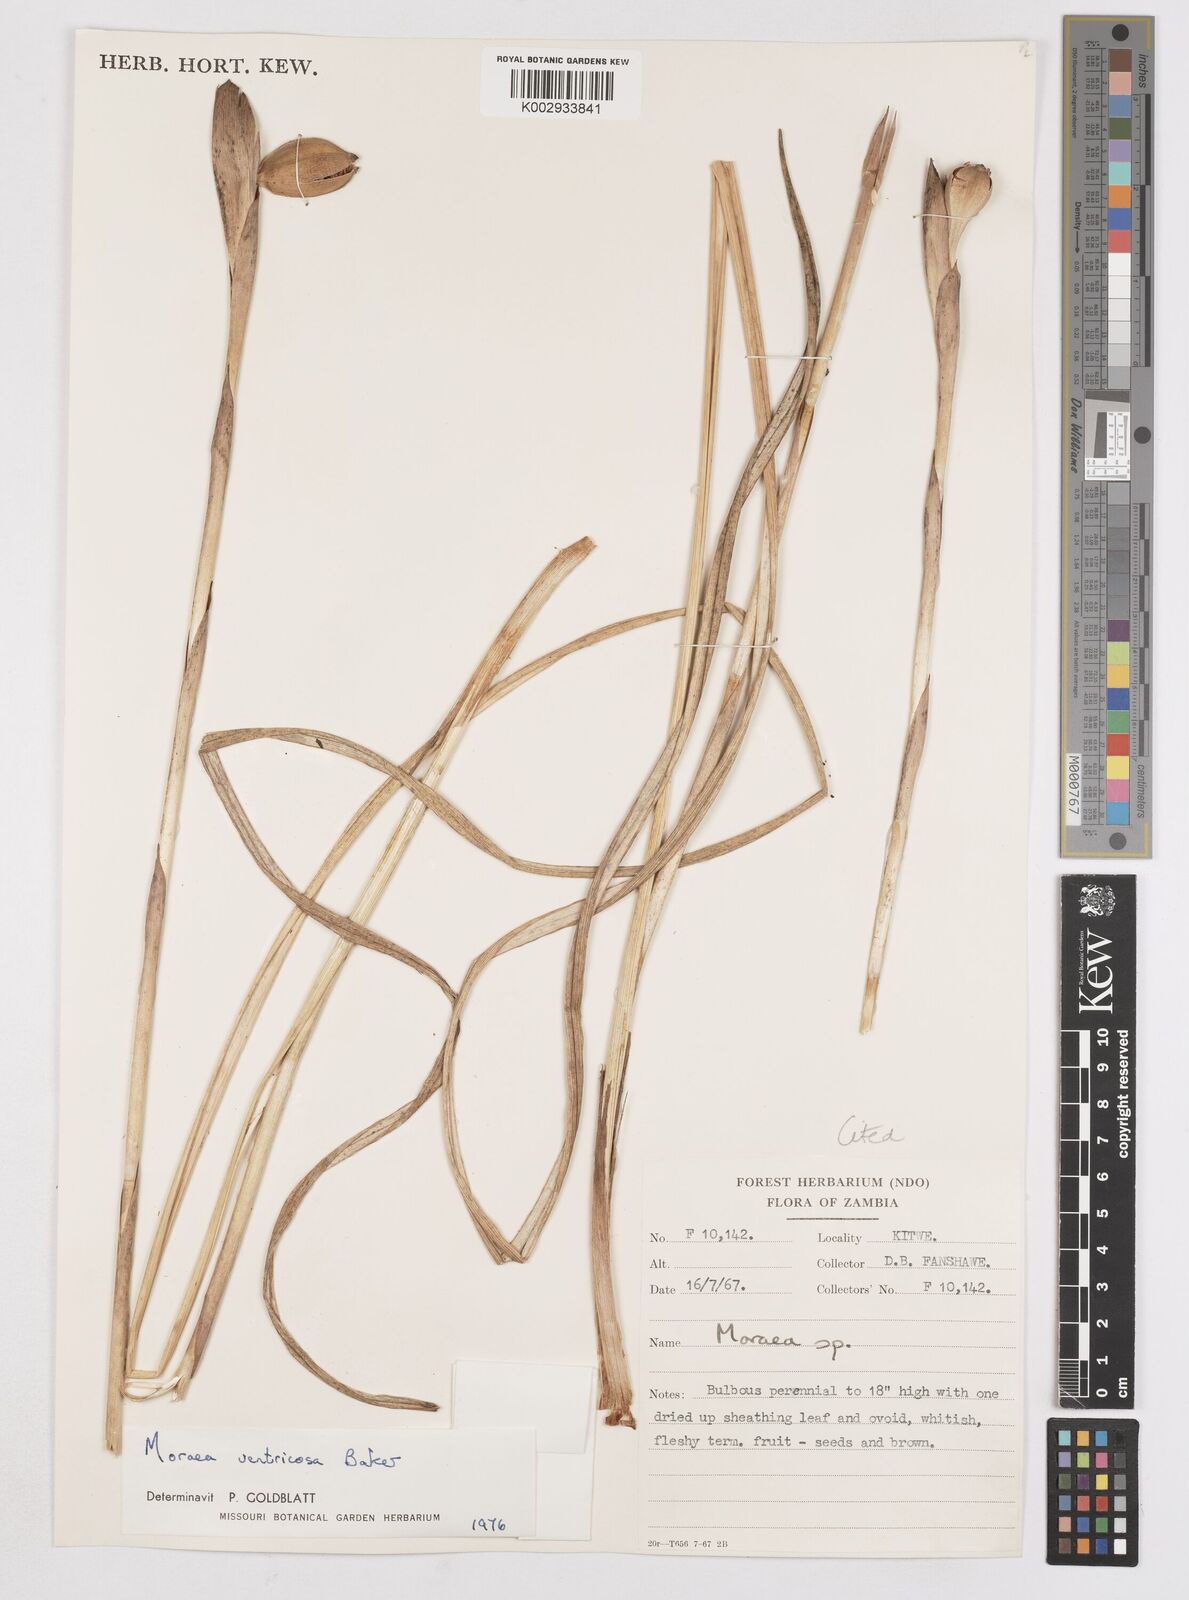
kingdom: Plantae
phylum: Tracheophyta
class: Liliopsida
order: Asparagales
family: Iridaceae
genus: Moraea
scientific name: Moraea ventricosa
